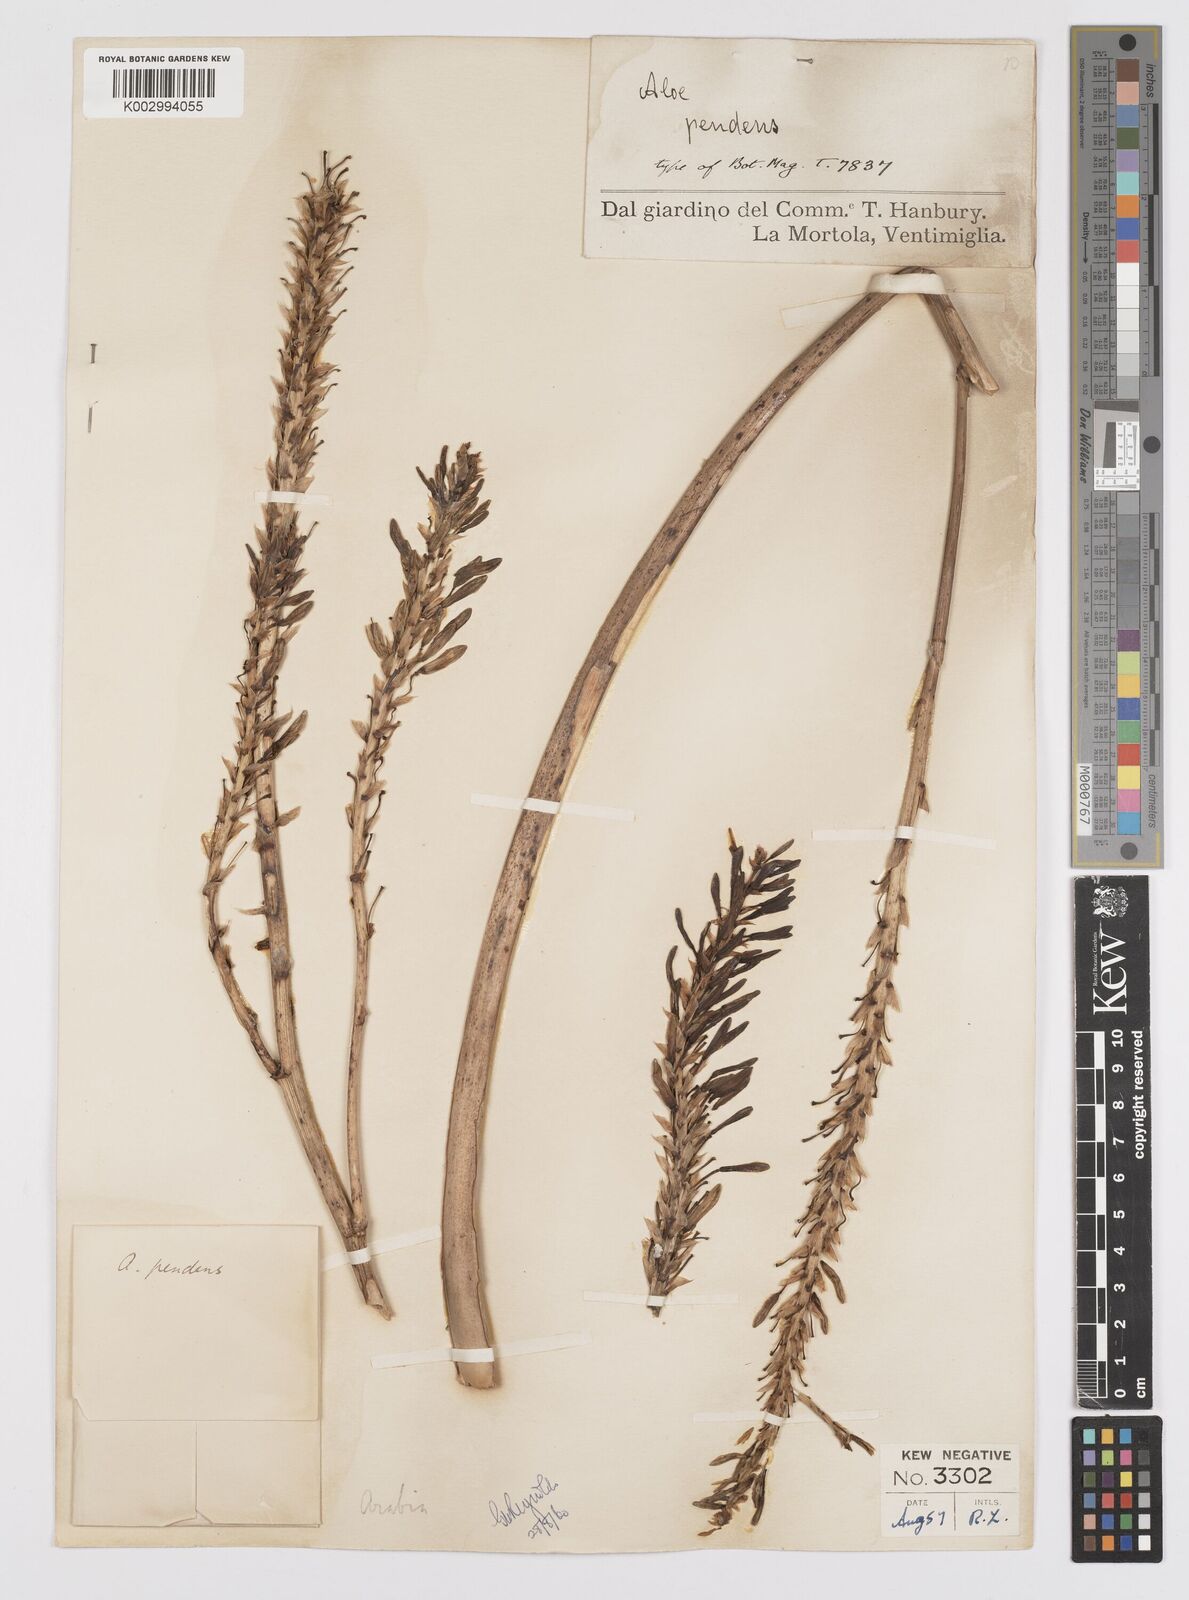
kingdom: Plantae
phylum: Tracheophyta
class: Liliopsida
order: Asparagales
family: Asphodelaceae
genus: Aloe
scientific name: Aloe yemenica
